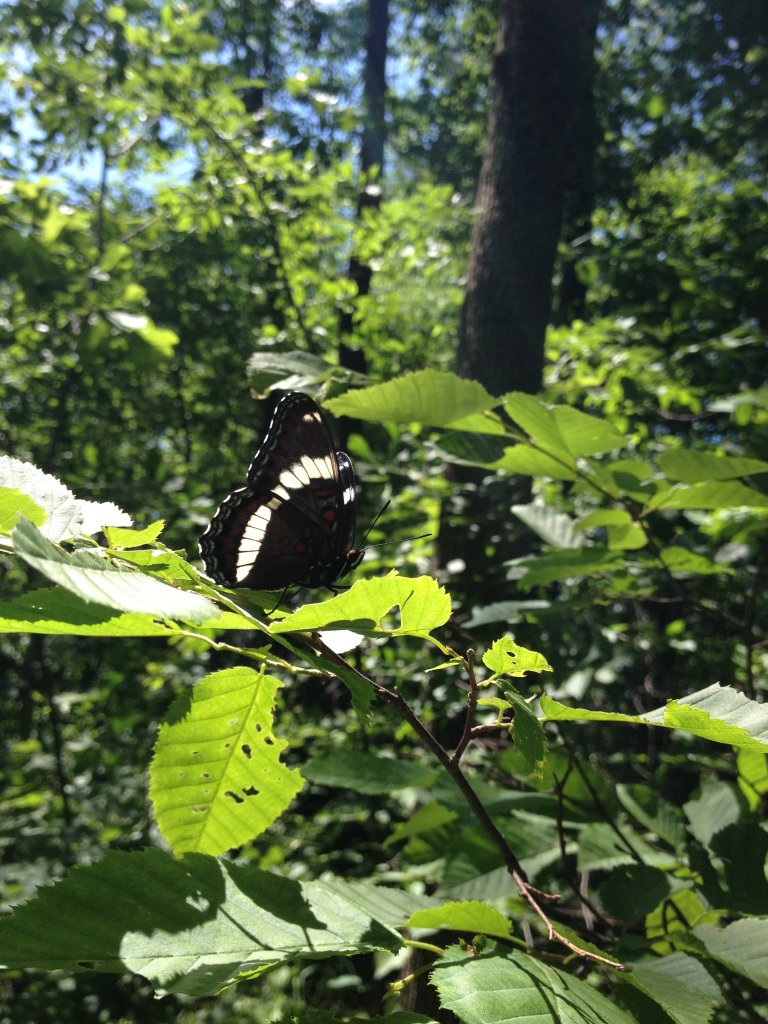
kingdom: Animalia
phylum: Arthropoda
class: Insecta
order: Lepidoptera
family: Nymphalidae
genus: Limenitis
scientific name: Limenitis arthemis
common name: Red-spotted Admiral
